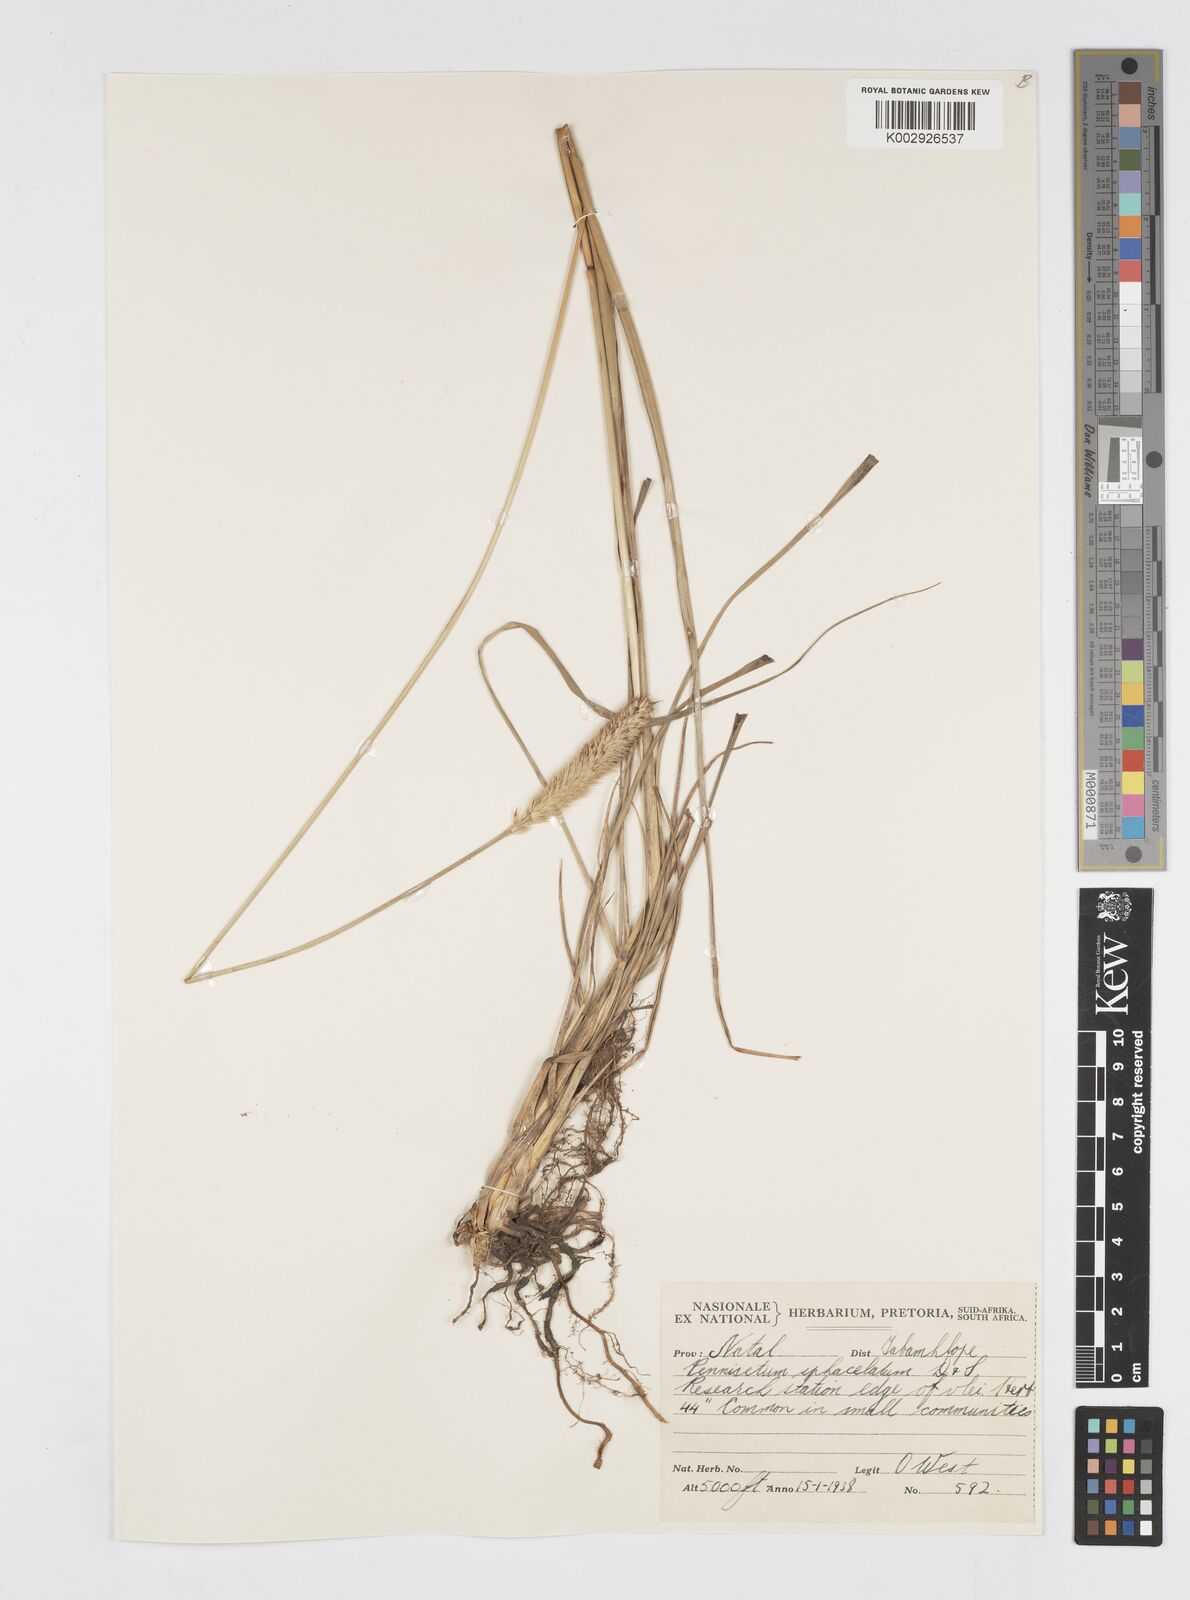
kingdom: Plantae
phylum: Tracheophyta
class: Liliopsida
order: Poales
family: Poaceae
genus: Cenchrus
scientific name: Cenchrus sphacelatus
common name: Bulgras
